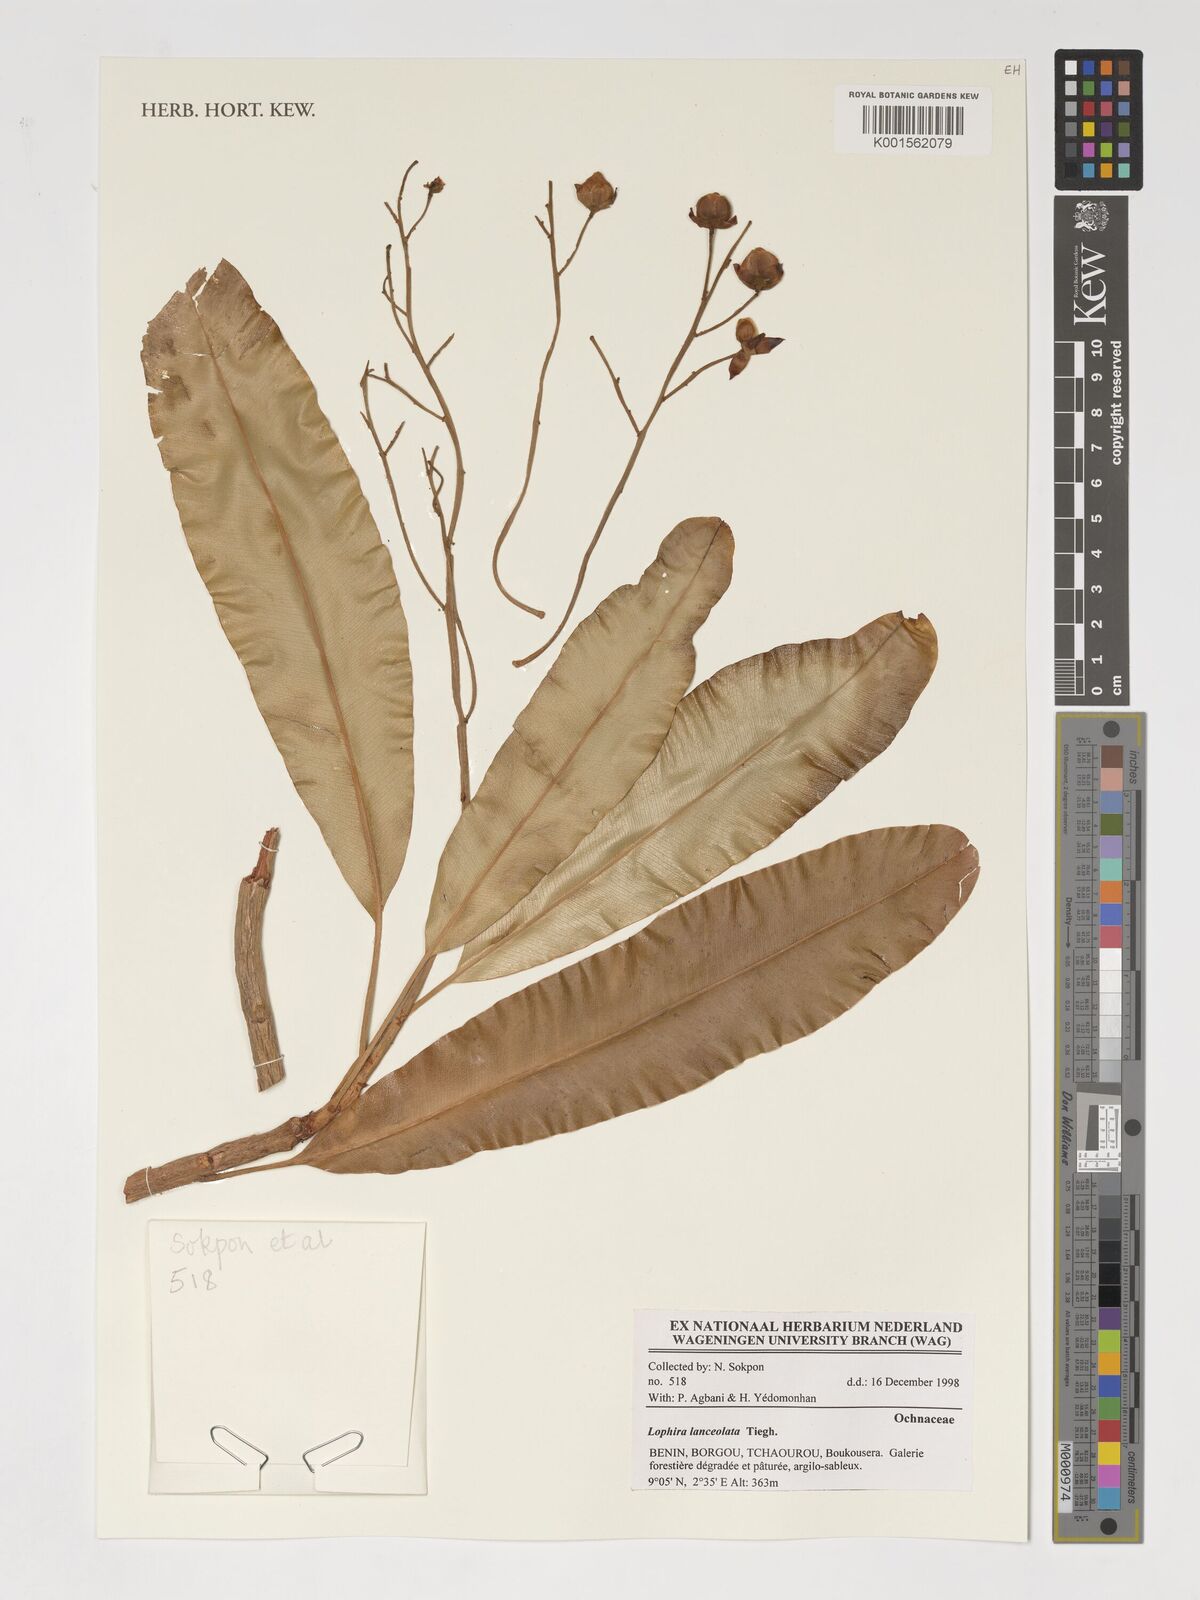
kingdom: Plantae
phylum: Tracheophyta
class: Magnoliopsida
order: Malpighiales
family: Ochnaceae
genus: Lophira
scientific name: Lophira lanceolata
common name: Dwarf red ironwood
